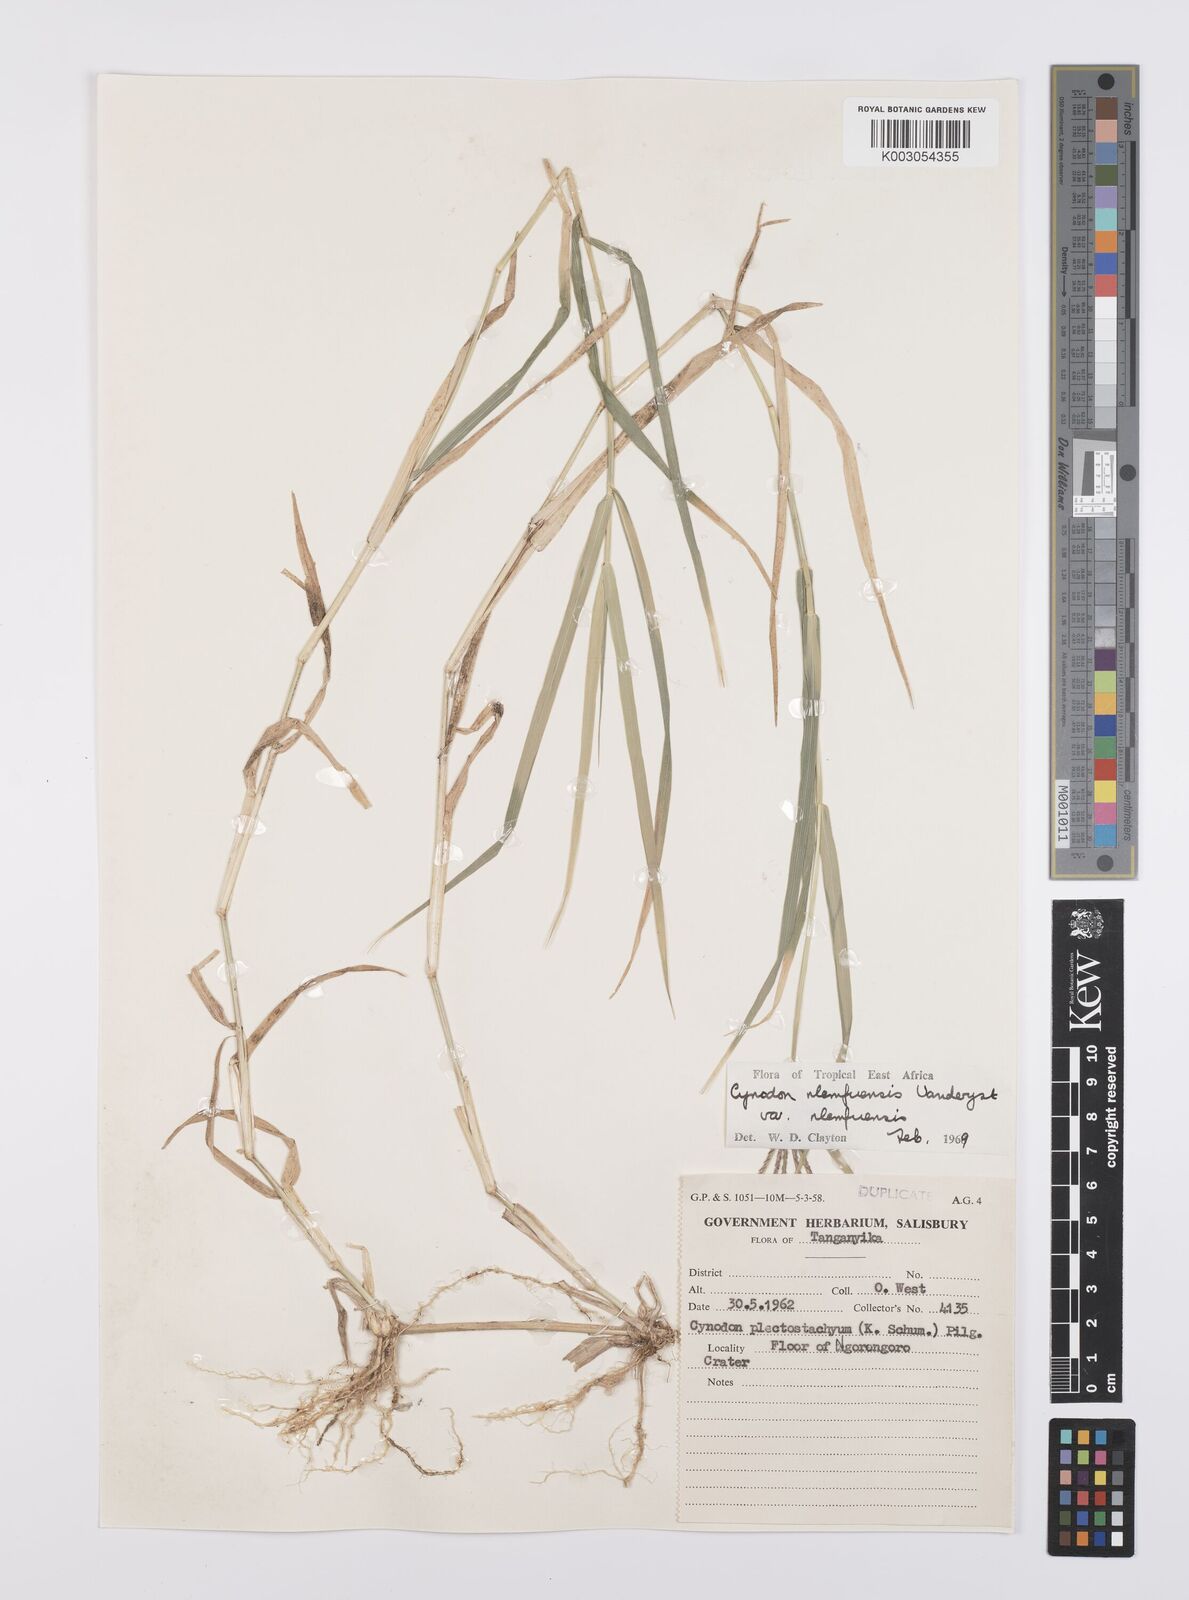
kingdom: Plantae
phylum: Tracheophyta
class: Liliopsida
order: Poales
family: Poaceae
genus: Cynodon
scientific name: Cynodon nlemfuensis
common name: African bermudagrass
